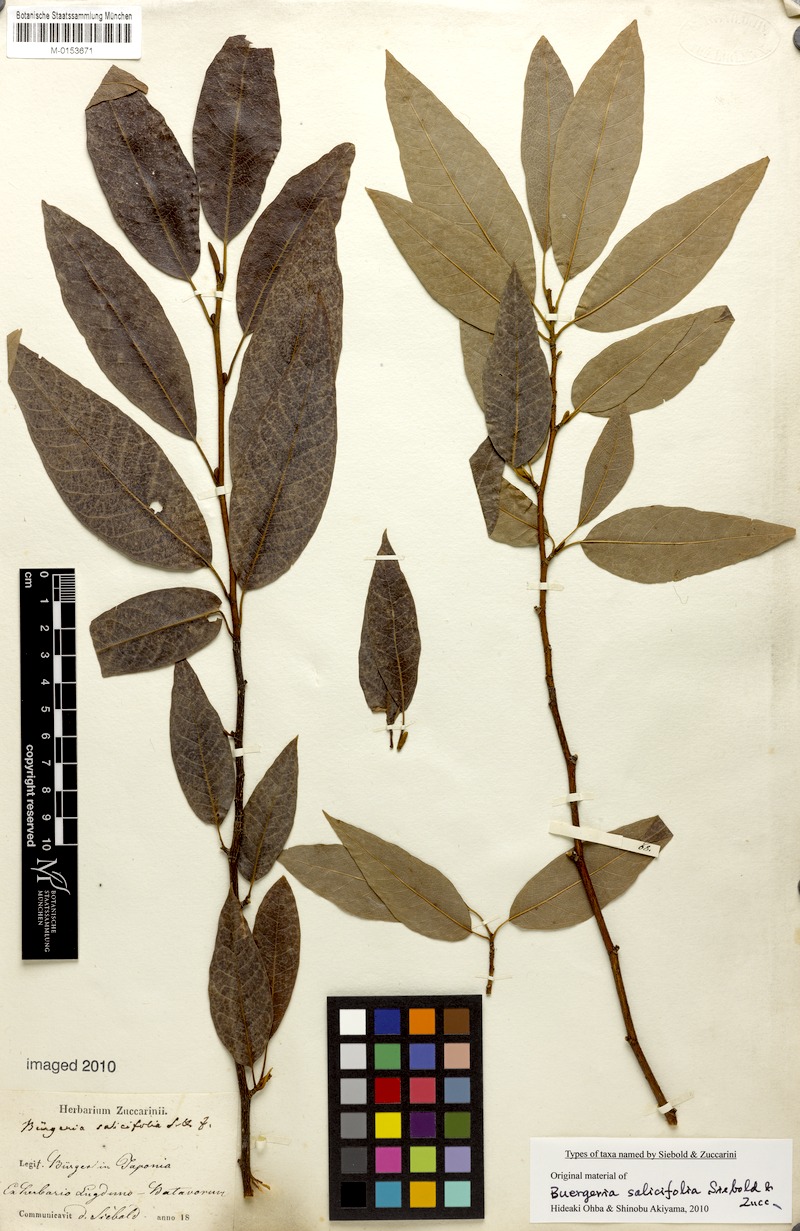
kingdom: Plantae
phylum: Tracheophyta
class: Magnoliopsida
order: Magnoliales
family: Magnoliaceae
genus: Magnolia
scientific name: Magnolia salicifolia
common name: Anise magnolia
